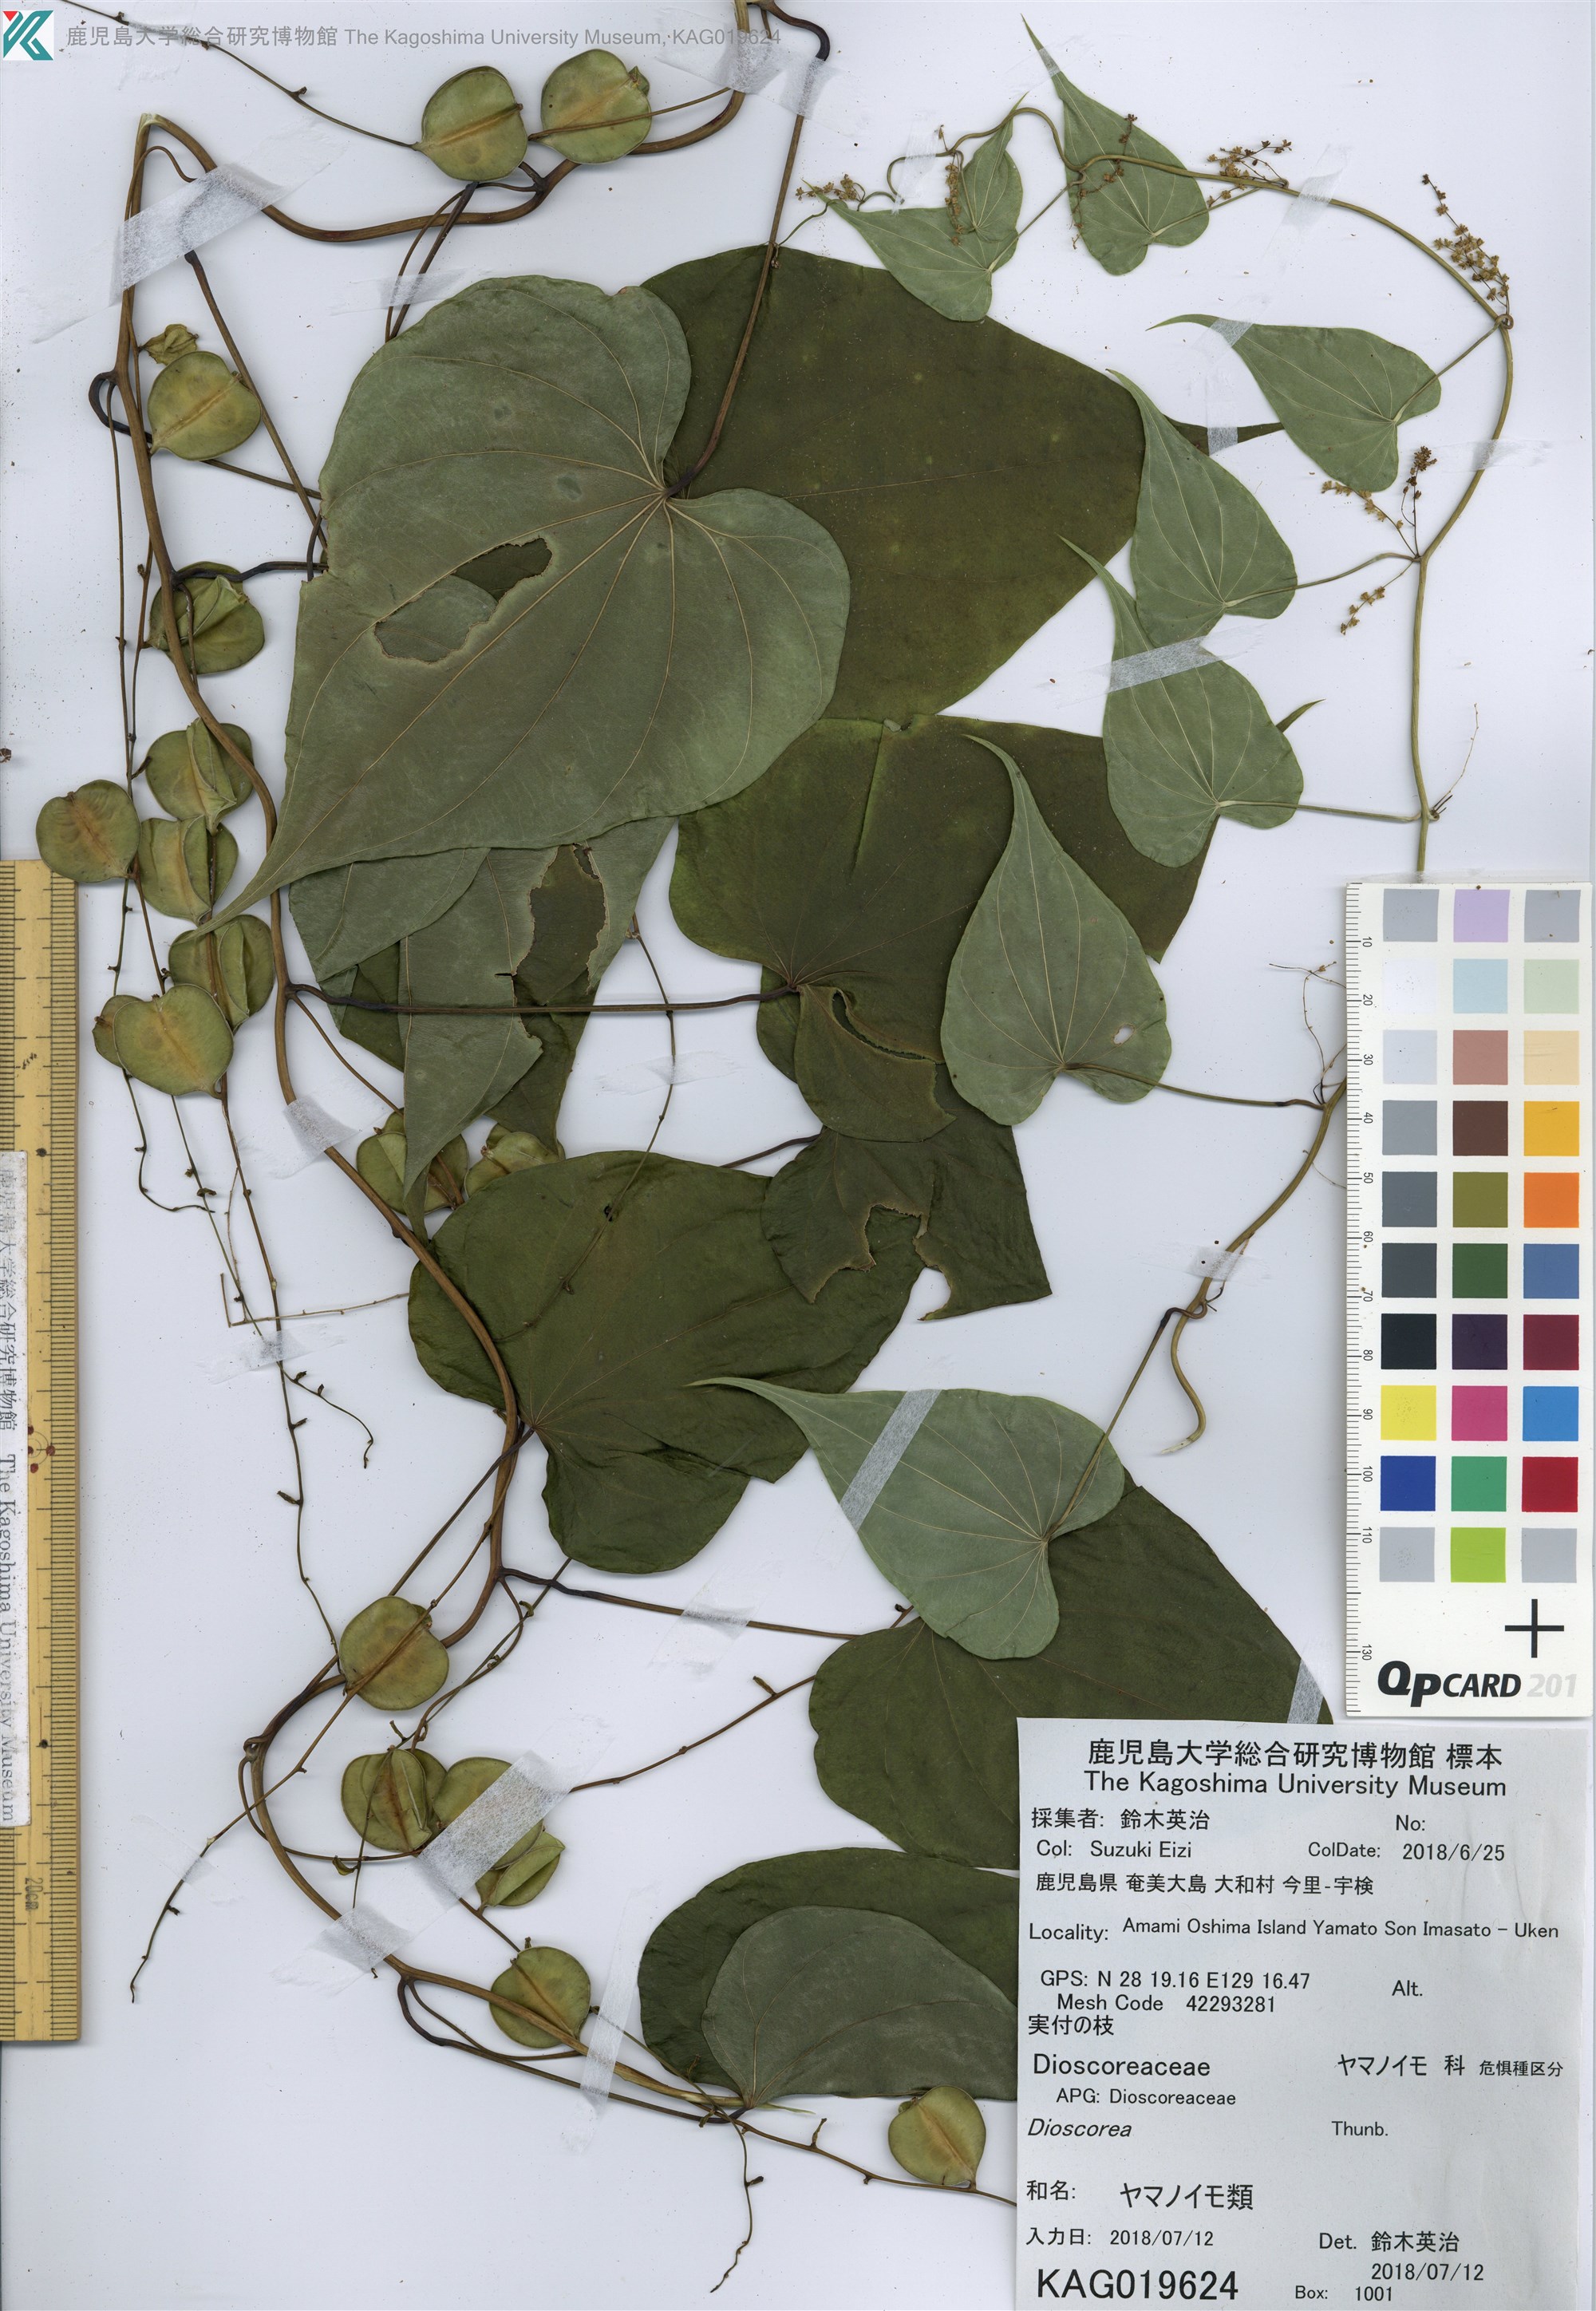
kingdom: Plantae
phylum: Tracheophyta
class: Liliopsida
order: Dioscoreales
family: Dioscoreaceae
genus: Dioscorea
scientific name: Dioscorea bulbifera
